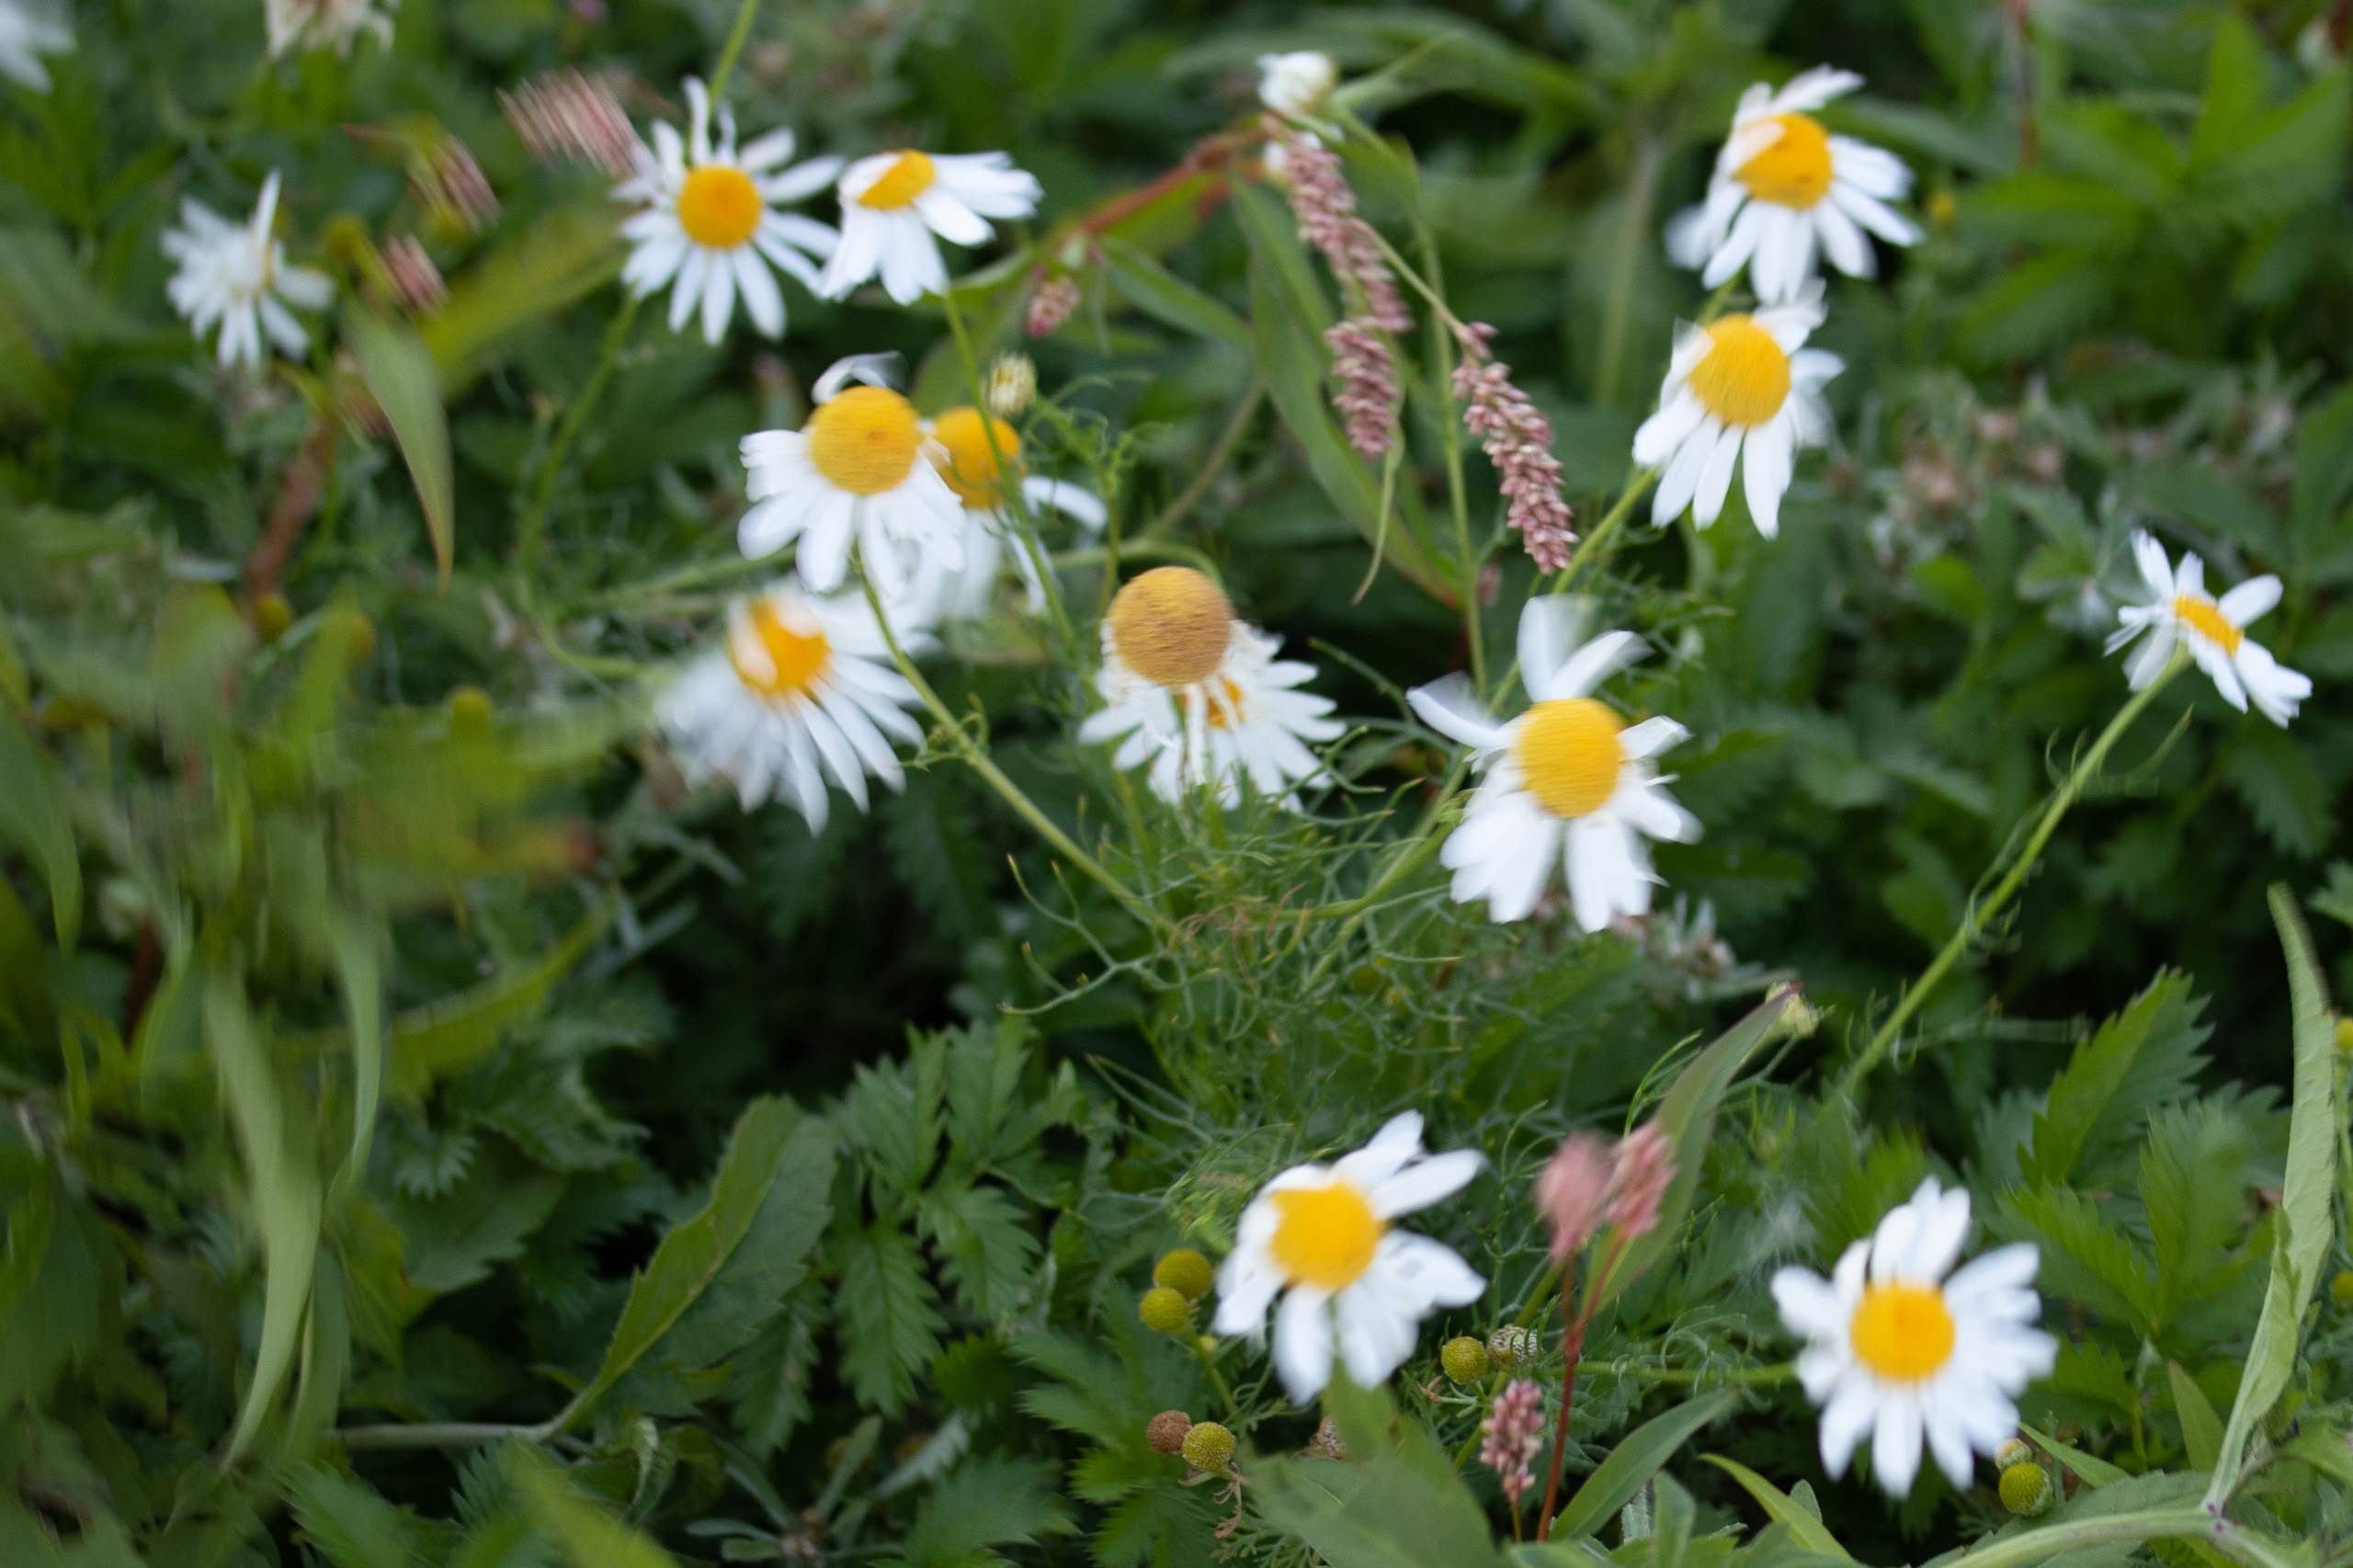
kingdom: Plantae
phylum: Tracheophyta
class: Magnoliopsida
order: Asterales
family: Asteraceae
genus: Tripleurospermum
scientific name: Tripleurospermum inodorum
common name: Lugtløs kamille
